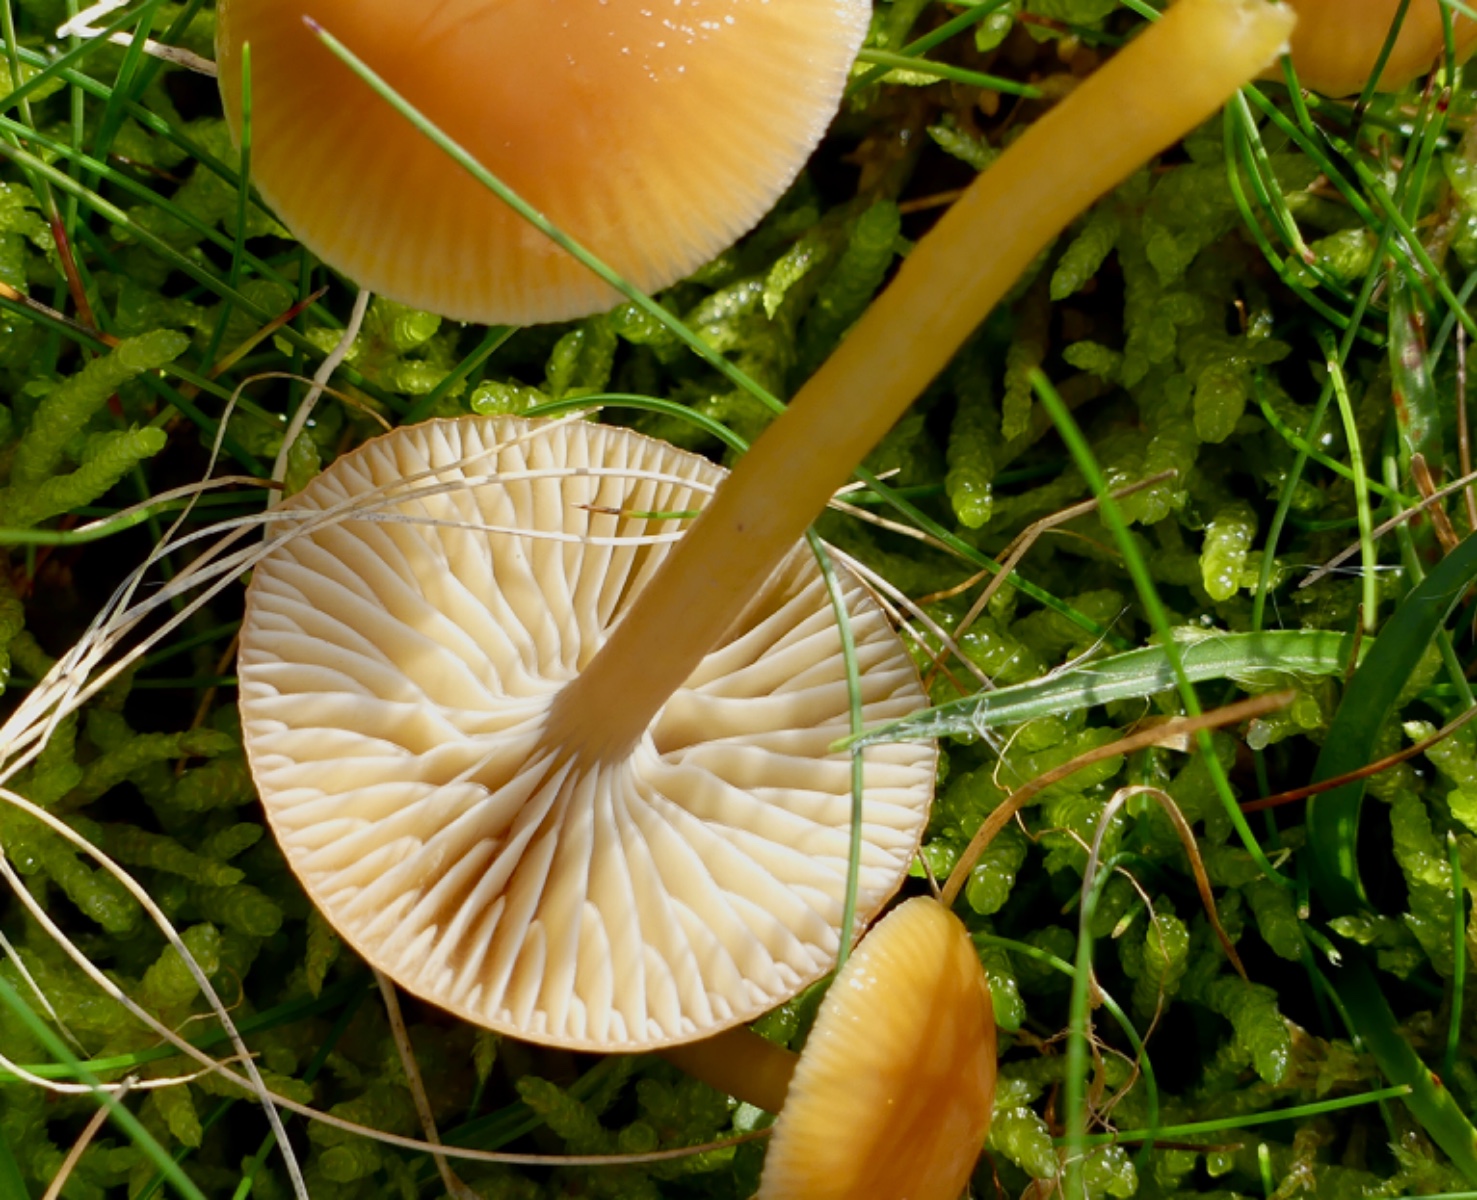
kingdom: Fungi
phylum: Basidiomycota
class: Agaricomycetes
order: Agaricales
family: Hygrophoraceae
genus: Gliophorus
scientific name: Gliophorus laetus
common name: brusk-vokshat
